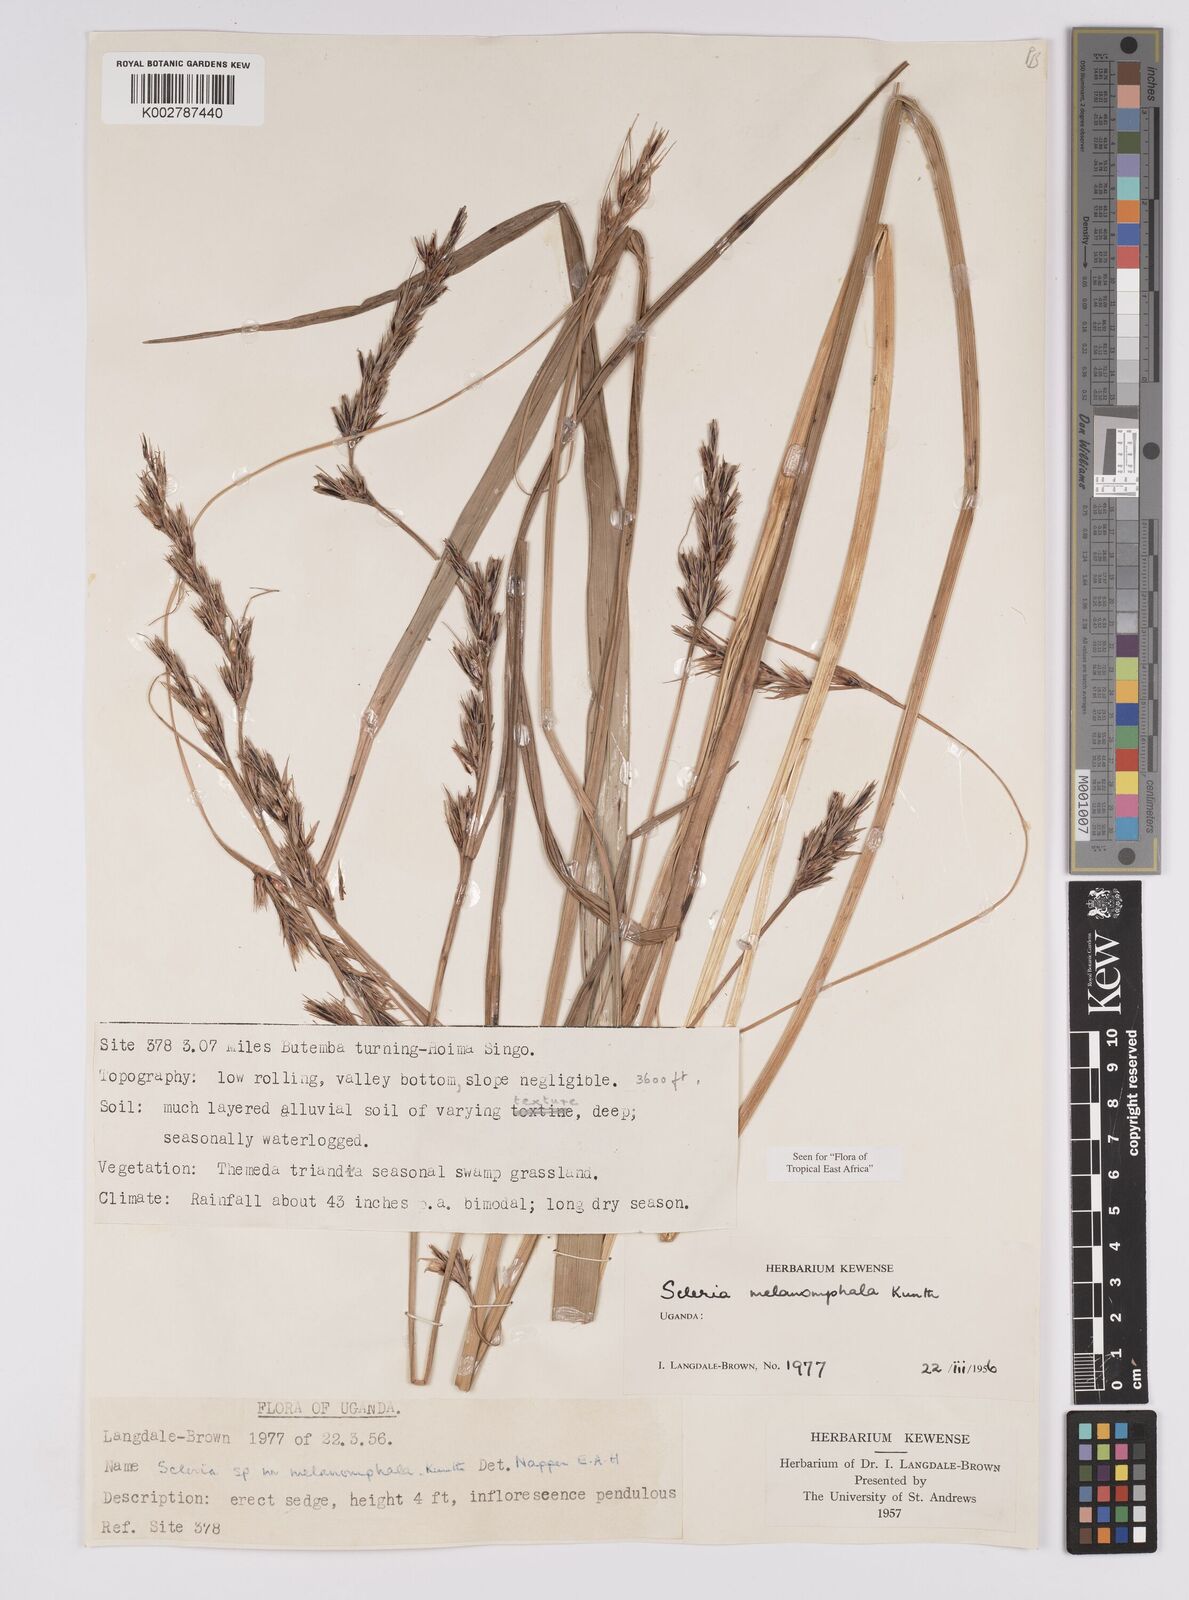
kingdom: Plantae
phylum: Tracheophyta
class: Liliopsida
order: Poales
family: Cyperaceae
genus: Scleria
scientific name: Scleria melanomphala
